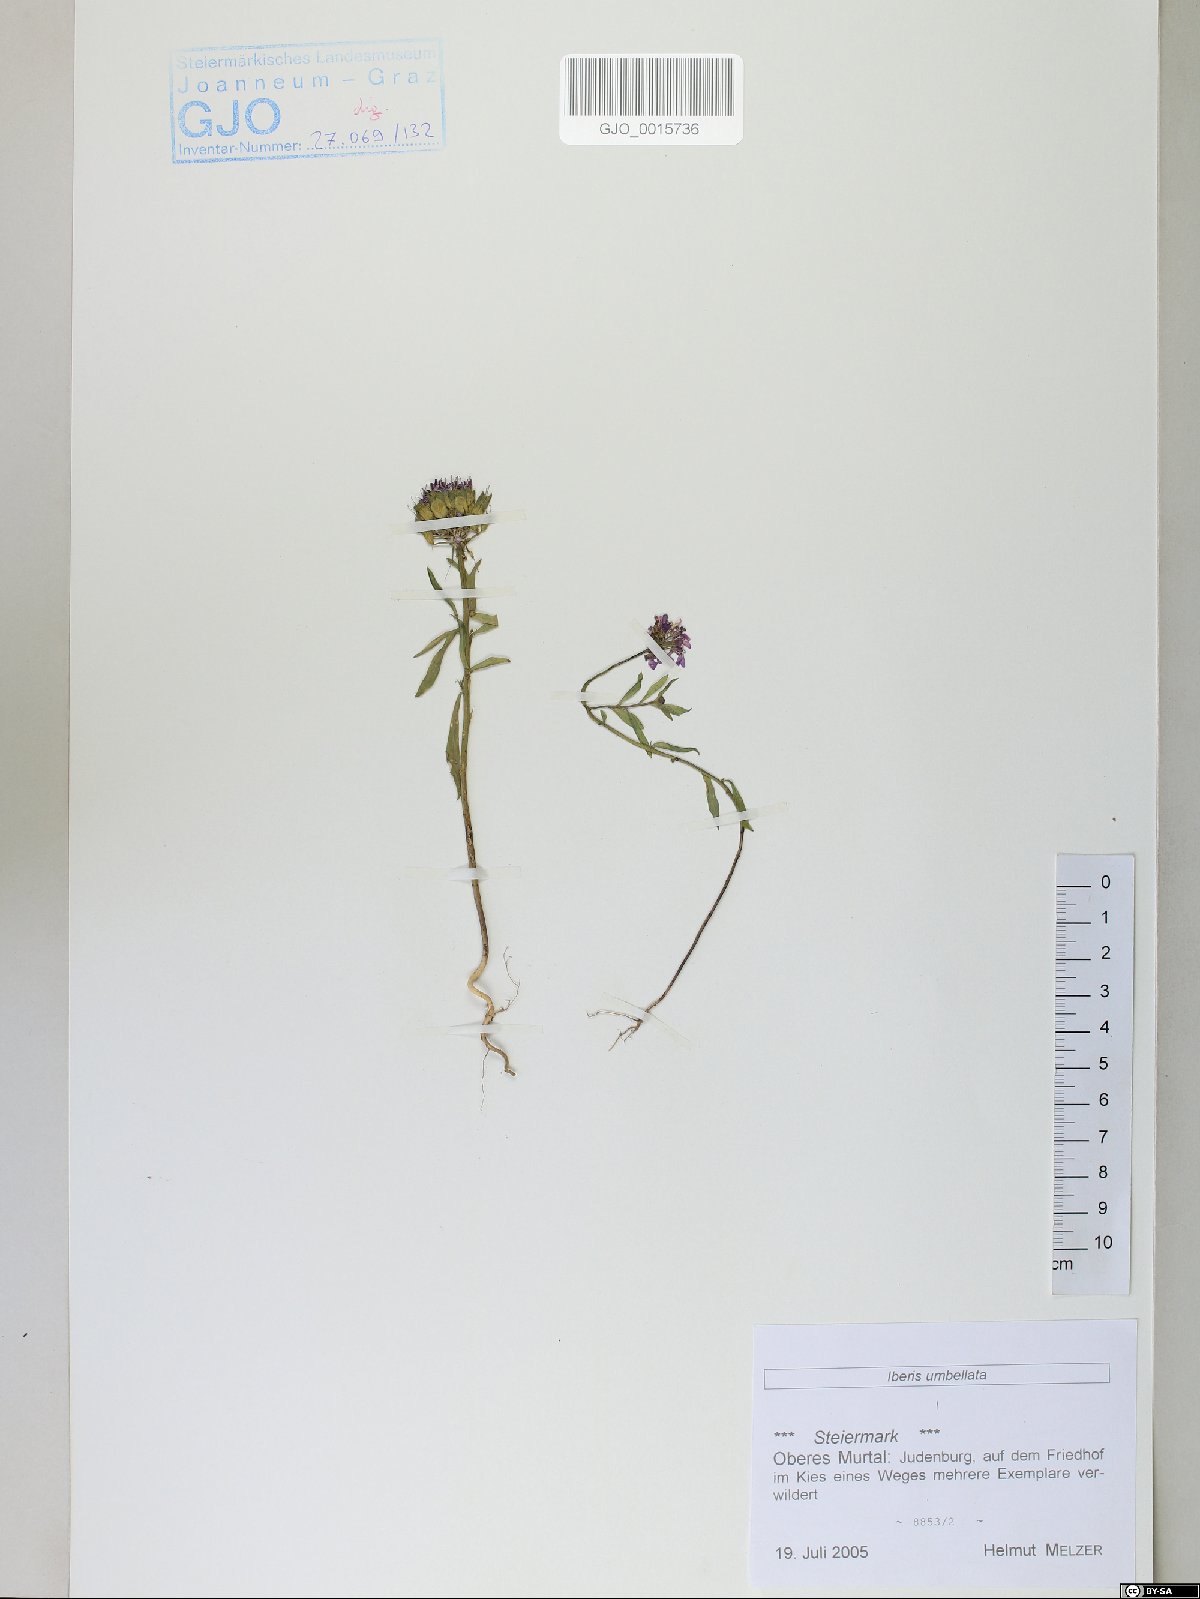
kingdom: Plantae
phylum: Tracheophyta
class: Magnoliopsida
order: Brassicales
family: Brassicaceae
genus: Iberis
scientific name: Iberis umbellata
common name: Globe candytuft
